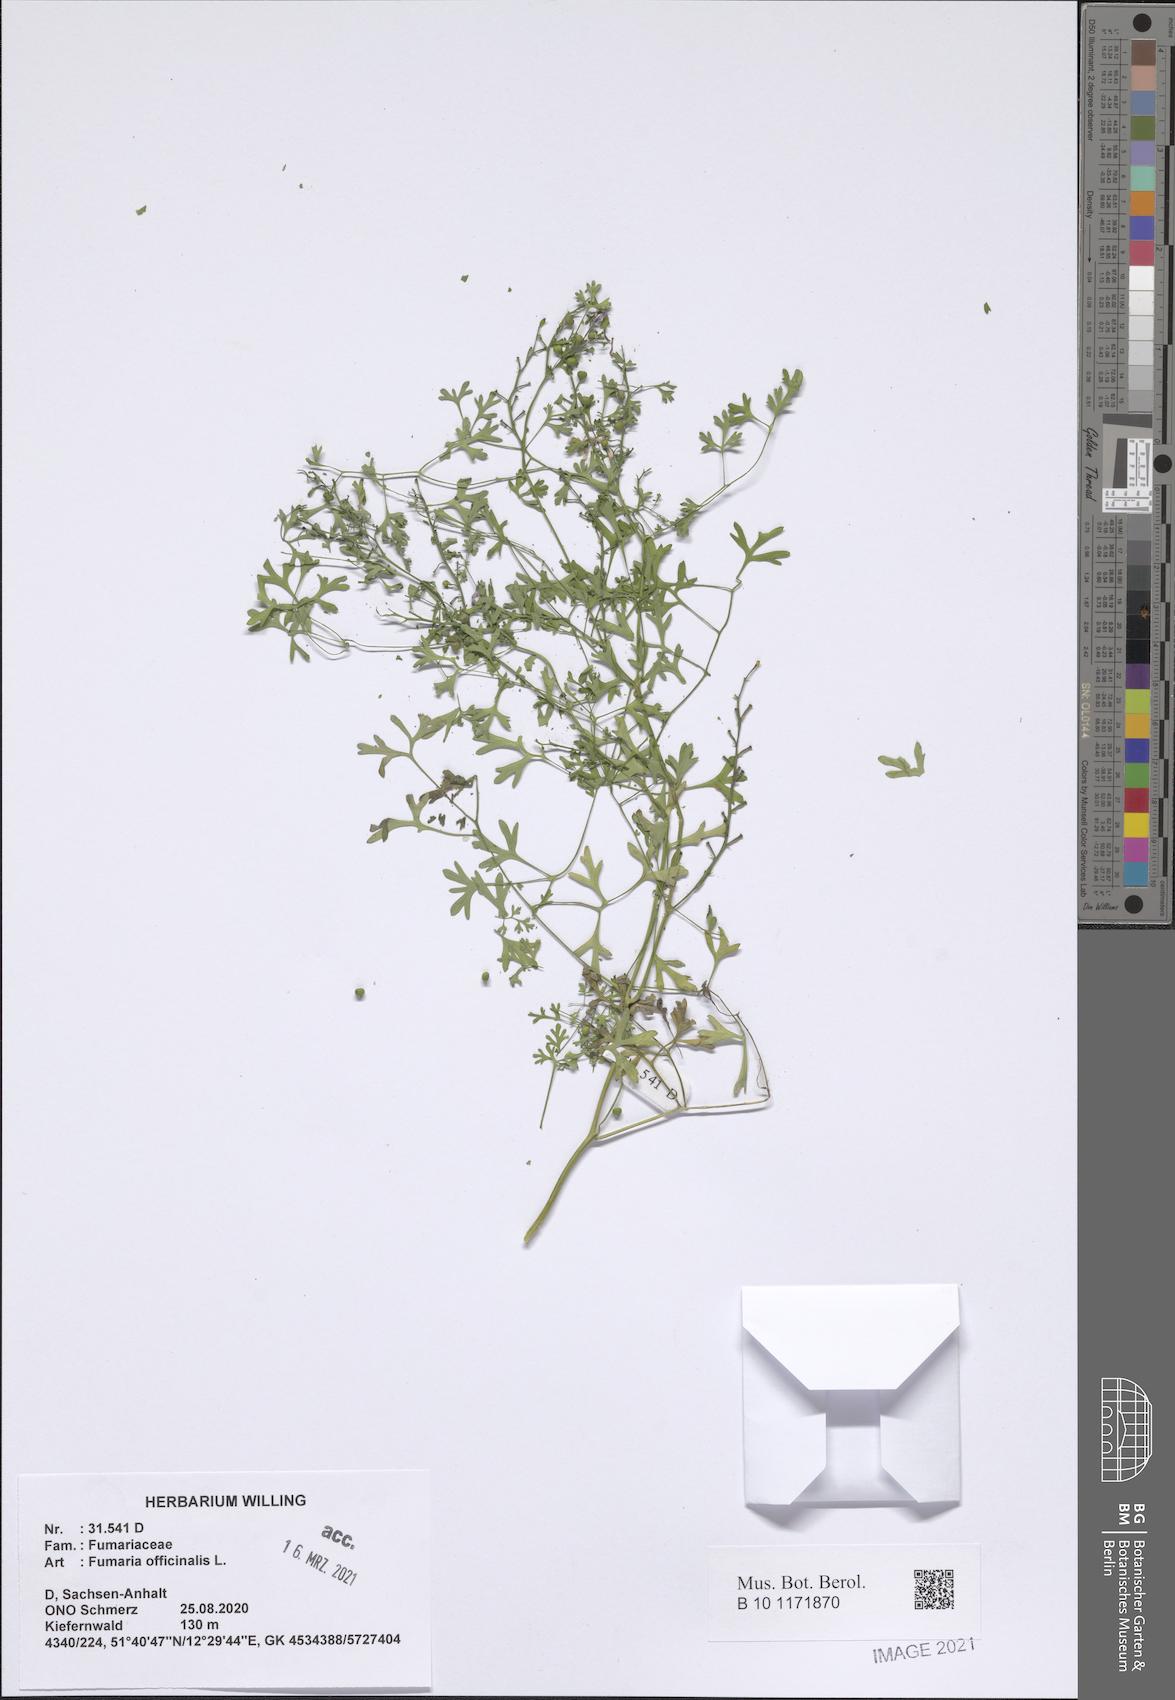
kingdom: Plantae
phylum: Tracheophyta
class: Magnoliopsida
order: Ranunculales
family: Papaveraceae
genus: Fumaria
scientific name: Fumaria officinalis
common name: Common fumitory
